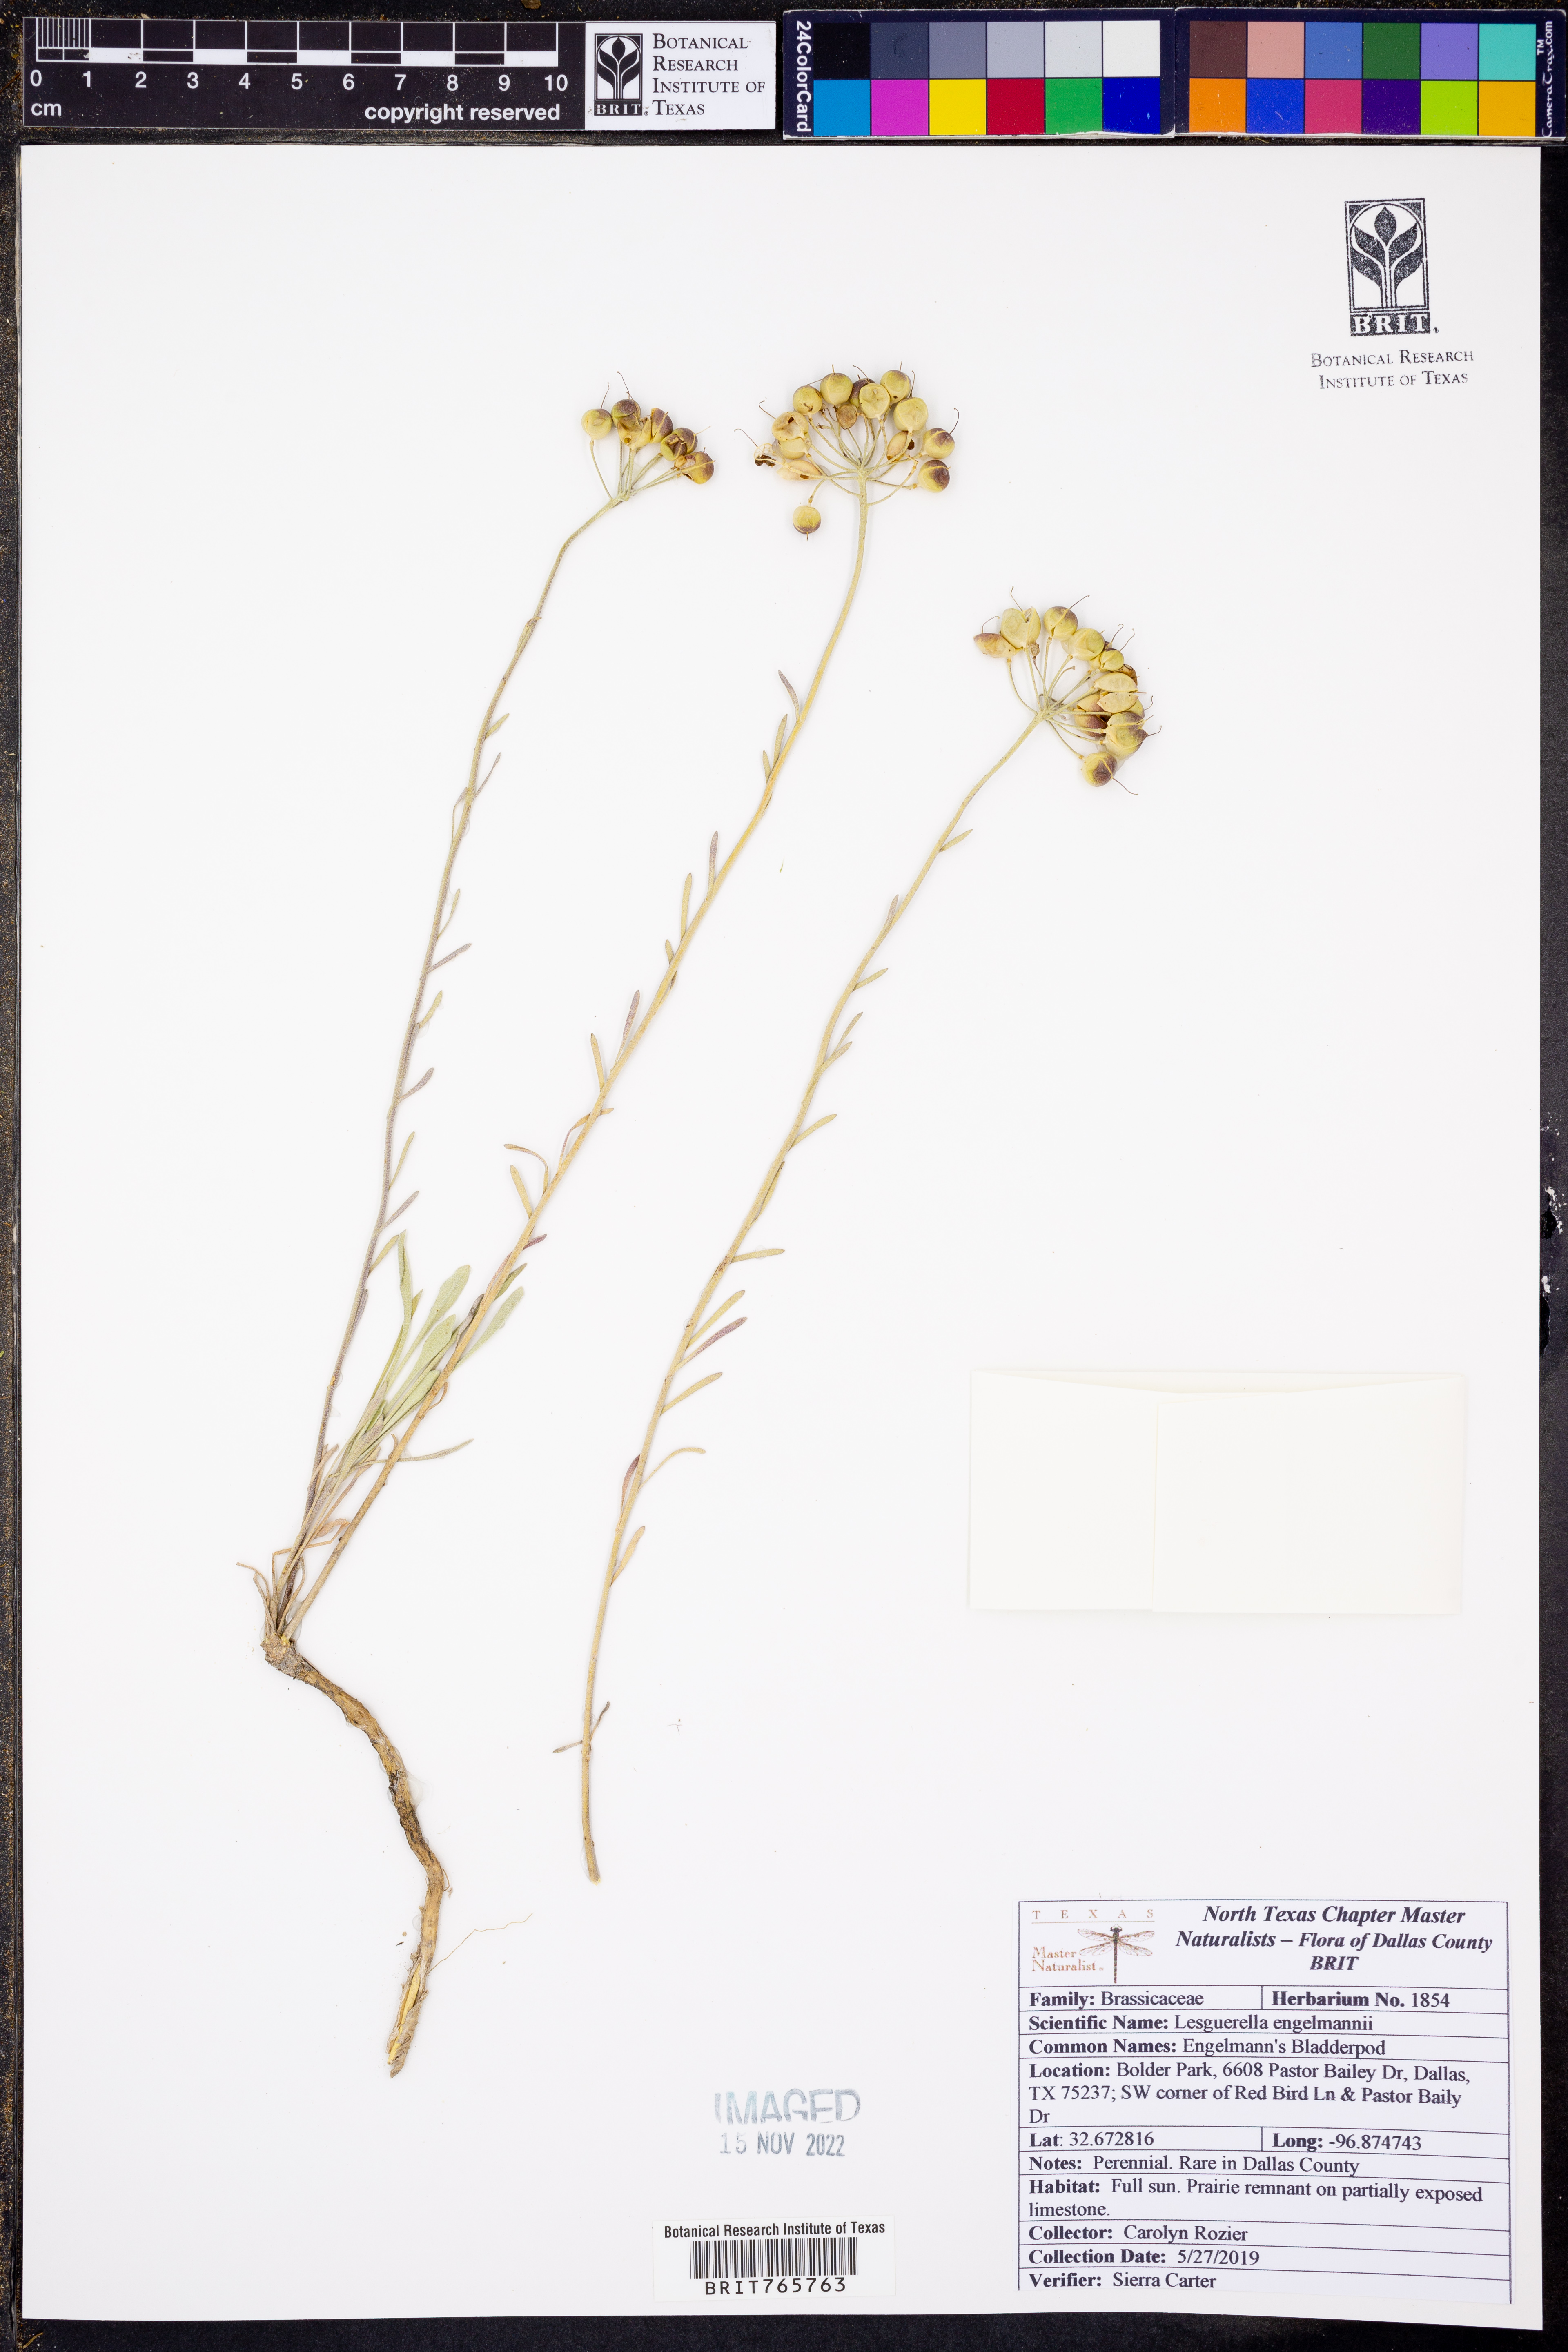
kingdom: Plantae
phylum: Tracheophyta
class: Magnoliopsida
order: Brassicales
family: Brassicaceae
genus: Physaria
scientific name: Physaria engelmannii
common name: Engelmann's bladderpod
